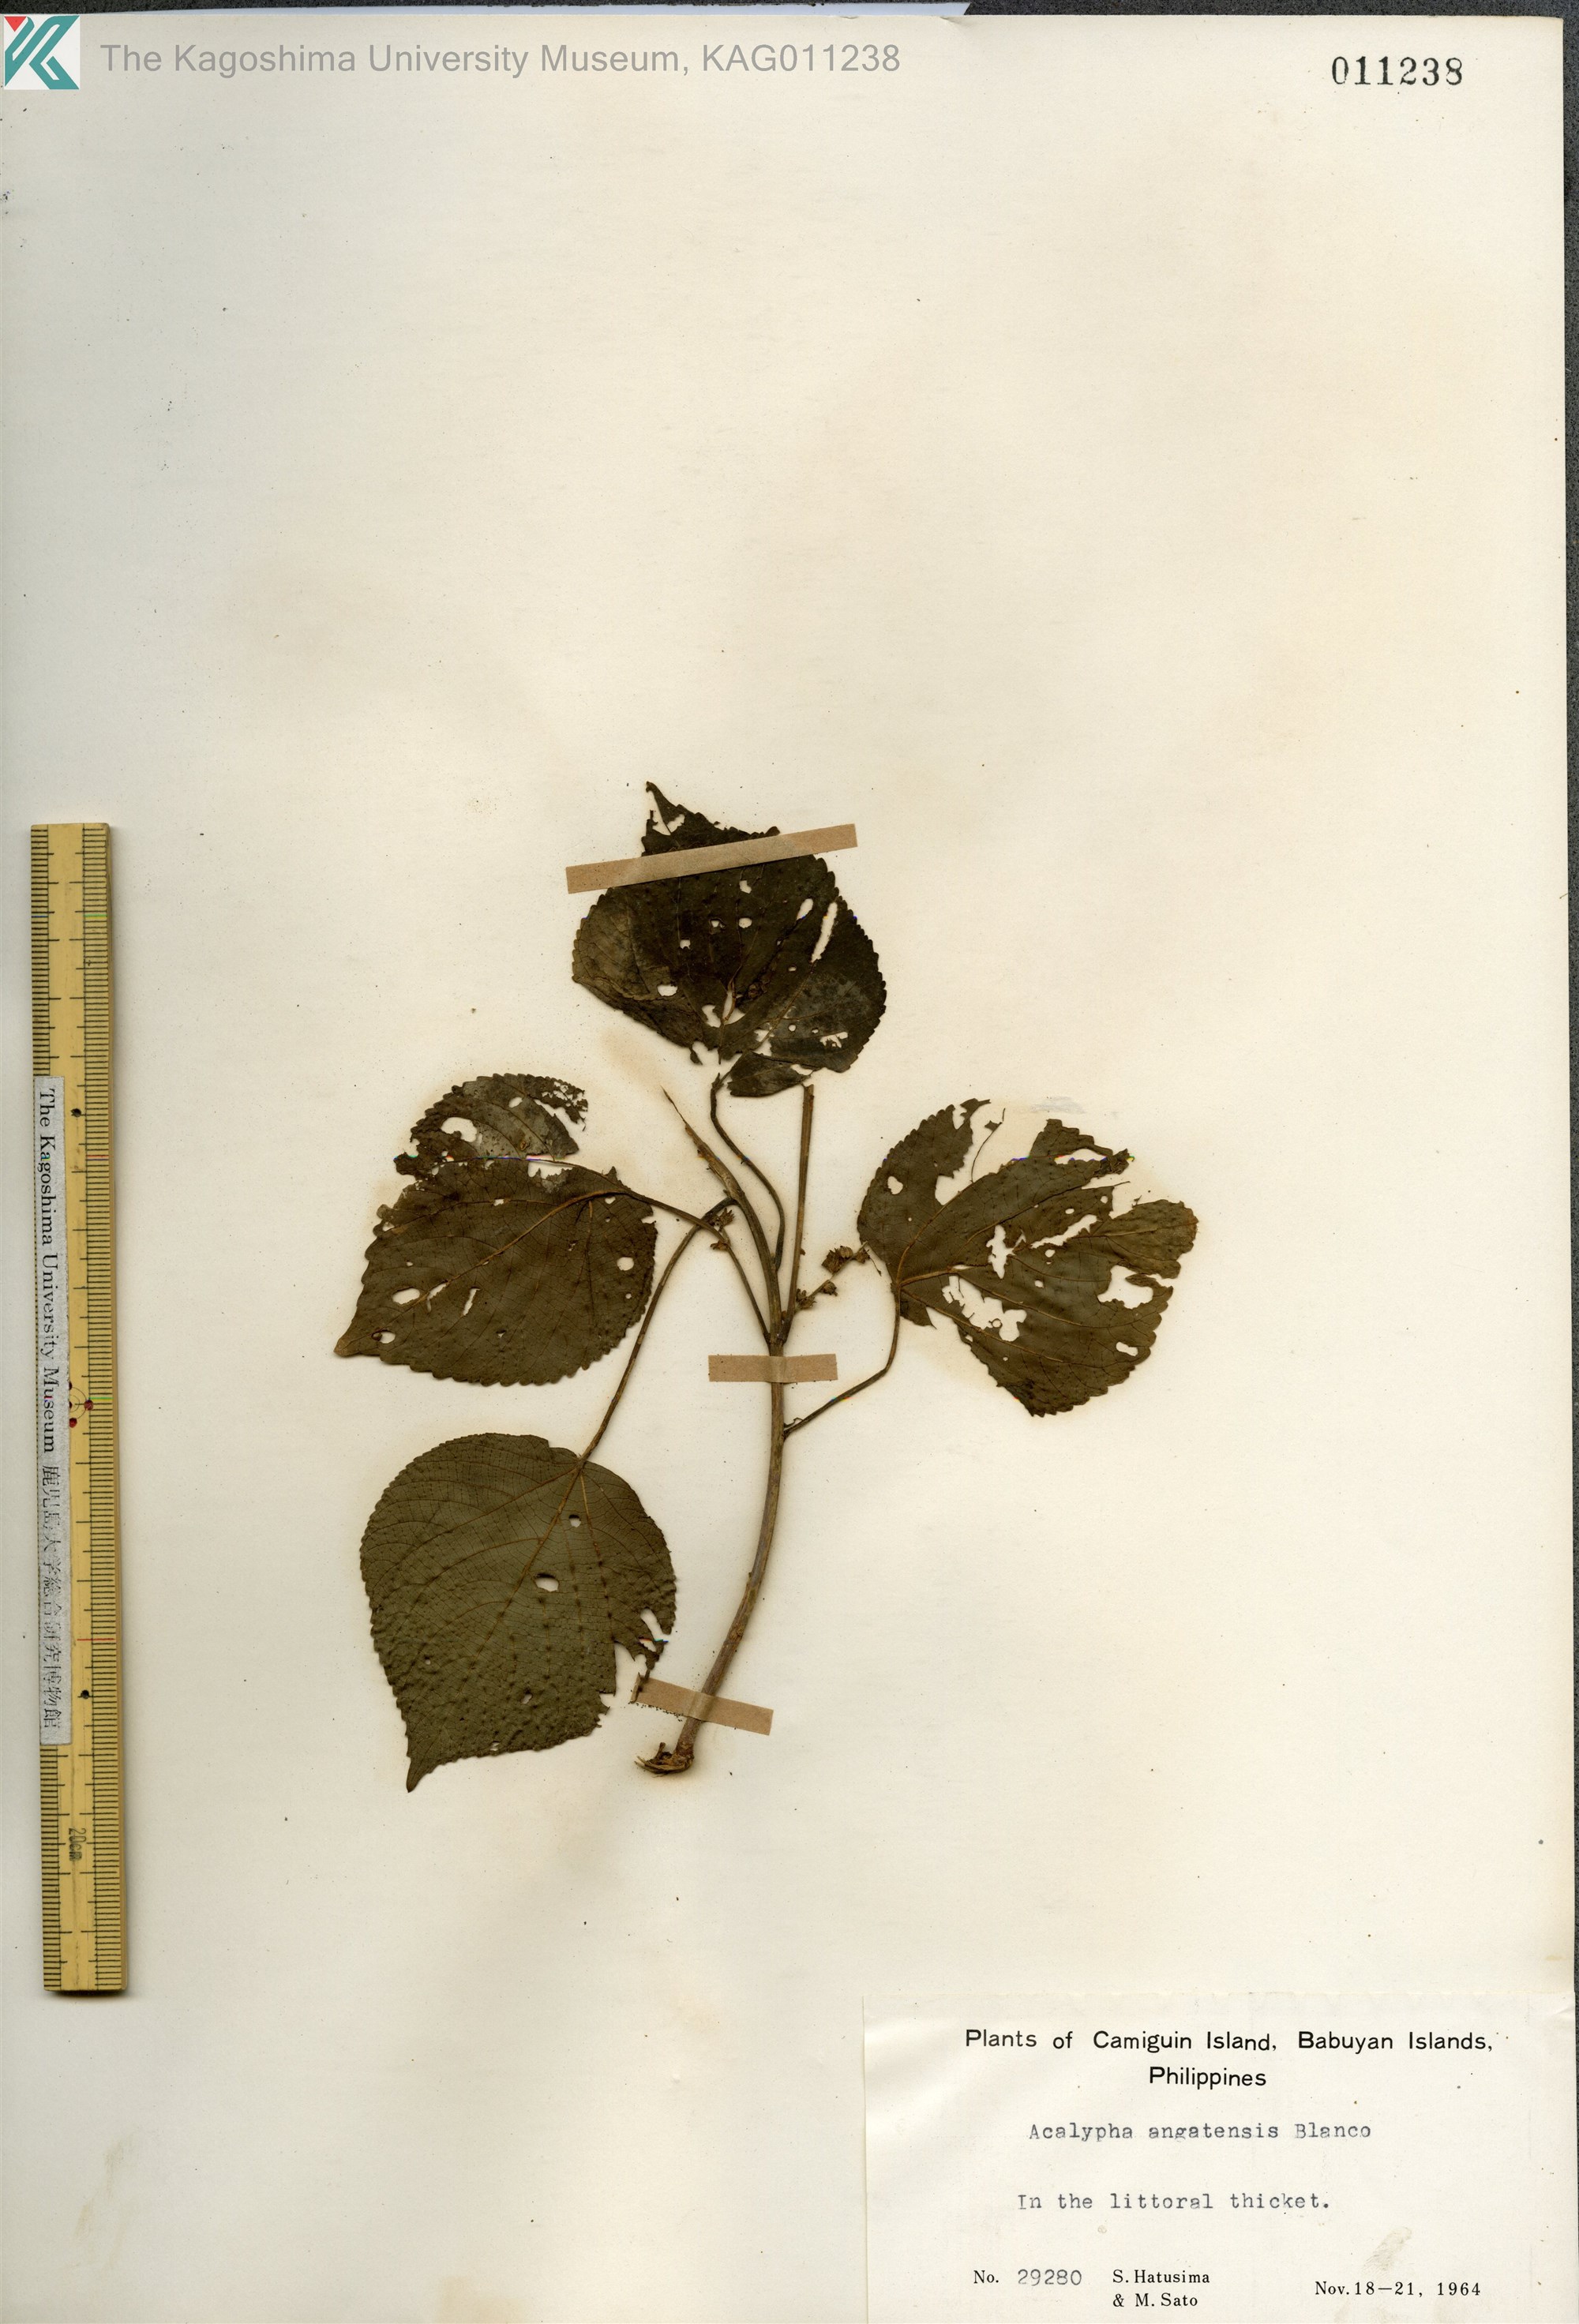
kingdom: Plantae
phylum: Tracheophyta
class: Magnoliopsida
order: Malpighiales
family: Euphorbiaceae
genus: Acalypha
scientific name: Acalypha angatensis
